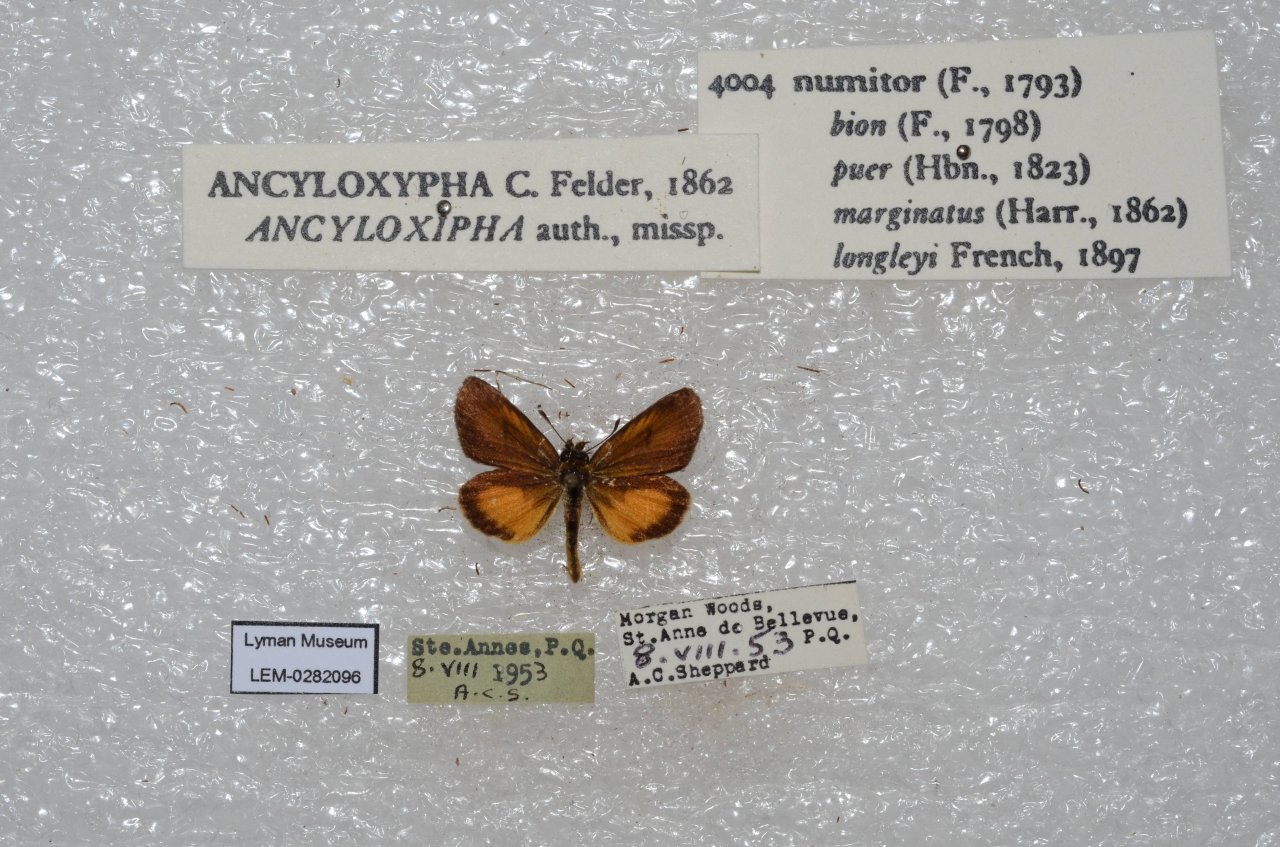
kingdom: Animalia
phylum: Arthropoda
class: Insecta
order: Lepidoptera
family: Hesperiidae
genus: Ancyloxypha
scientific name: Ancyloxypha numitor
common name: Least Skipper
